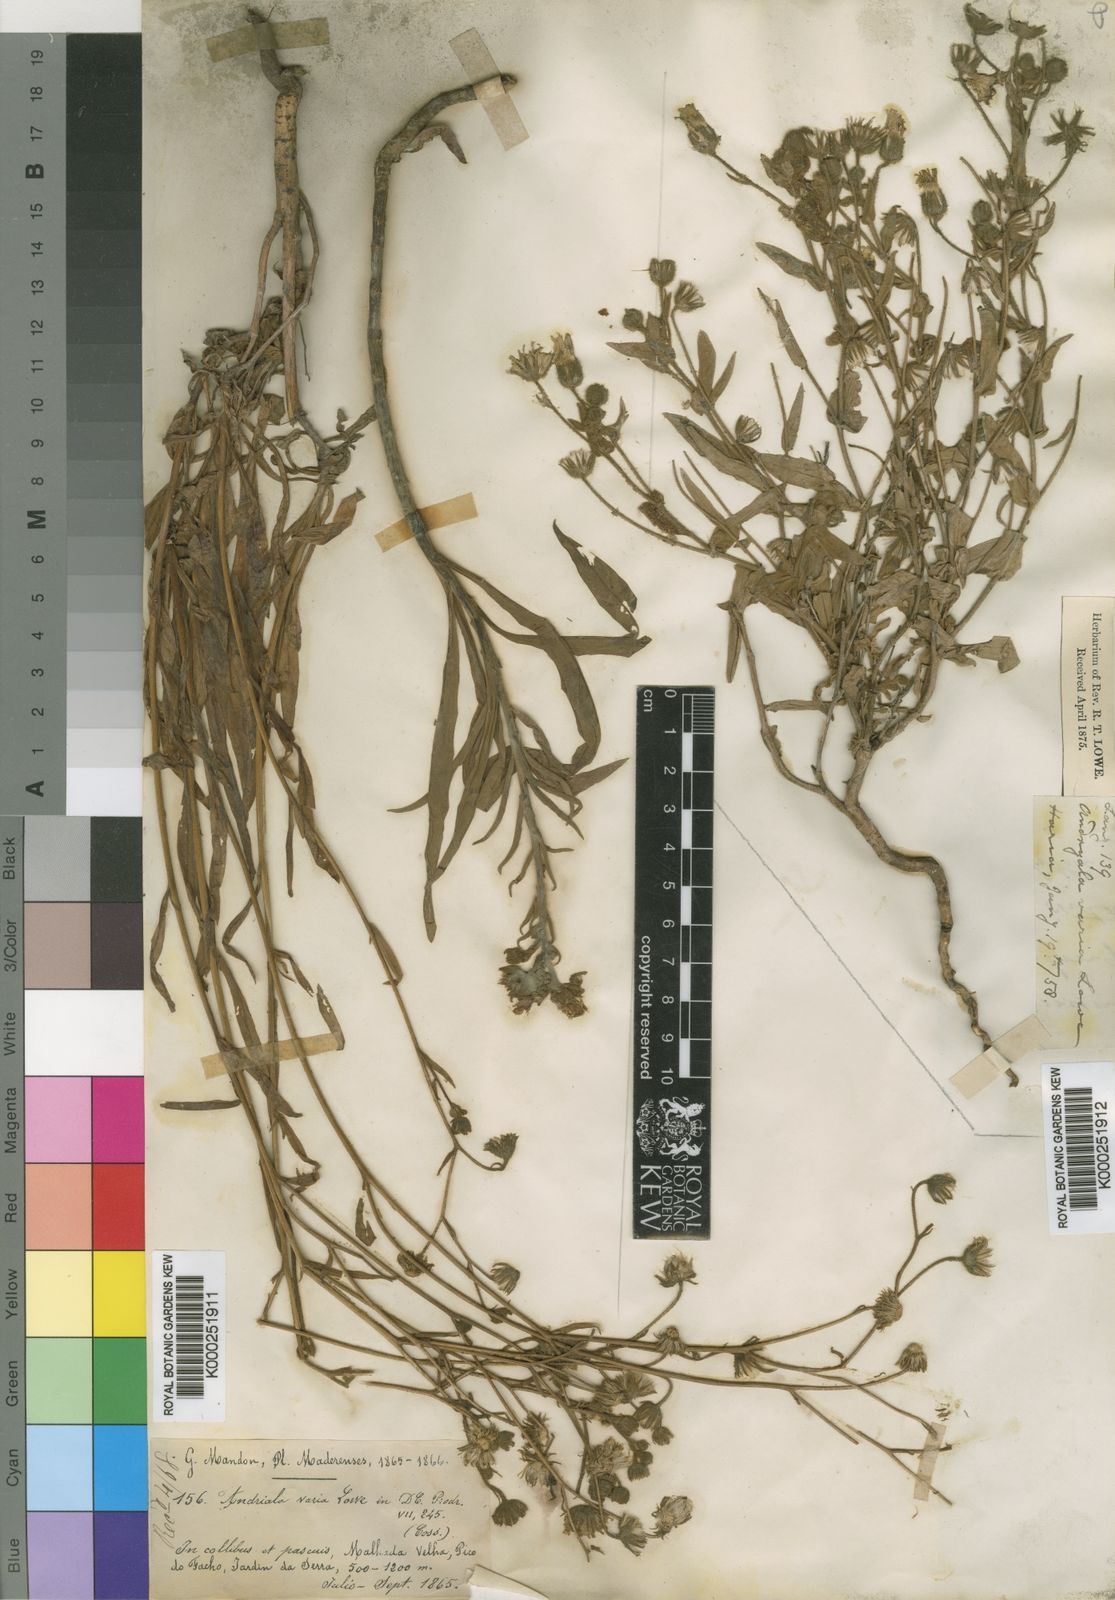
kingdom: Plantae
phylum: Tracheophyta
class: Magnoliopsida
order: Asterales
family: Asteraceae
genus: Andryala
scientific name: Andryala glandulosa
